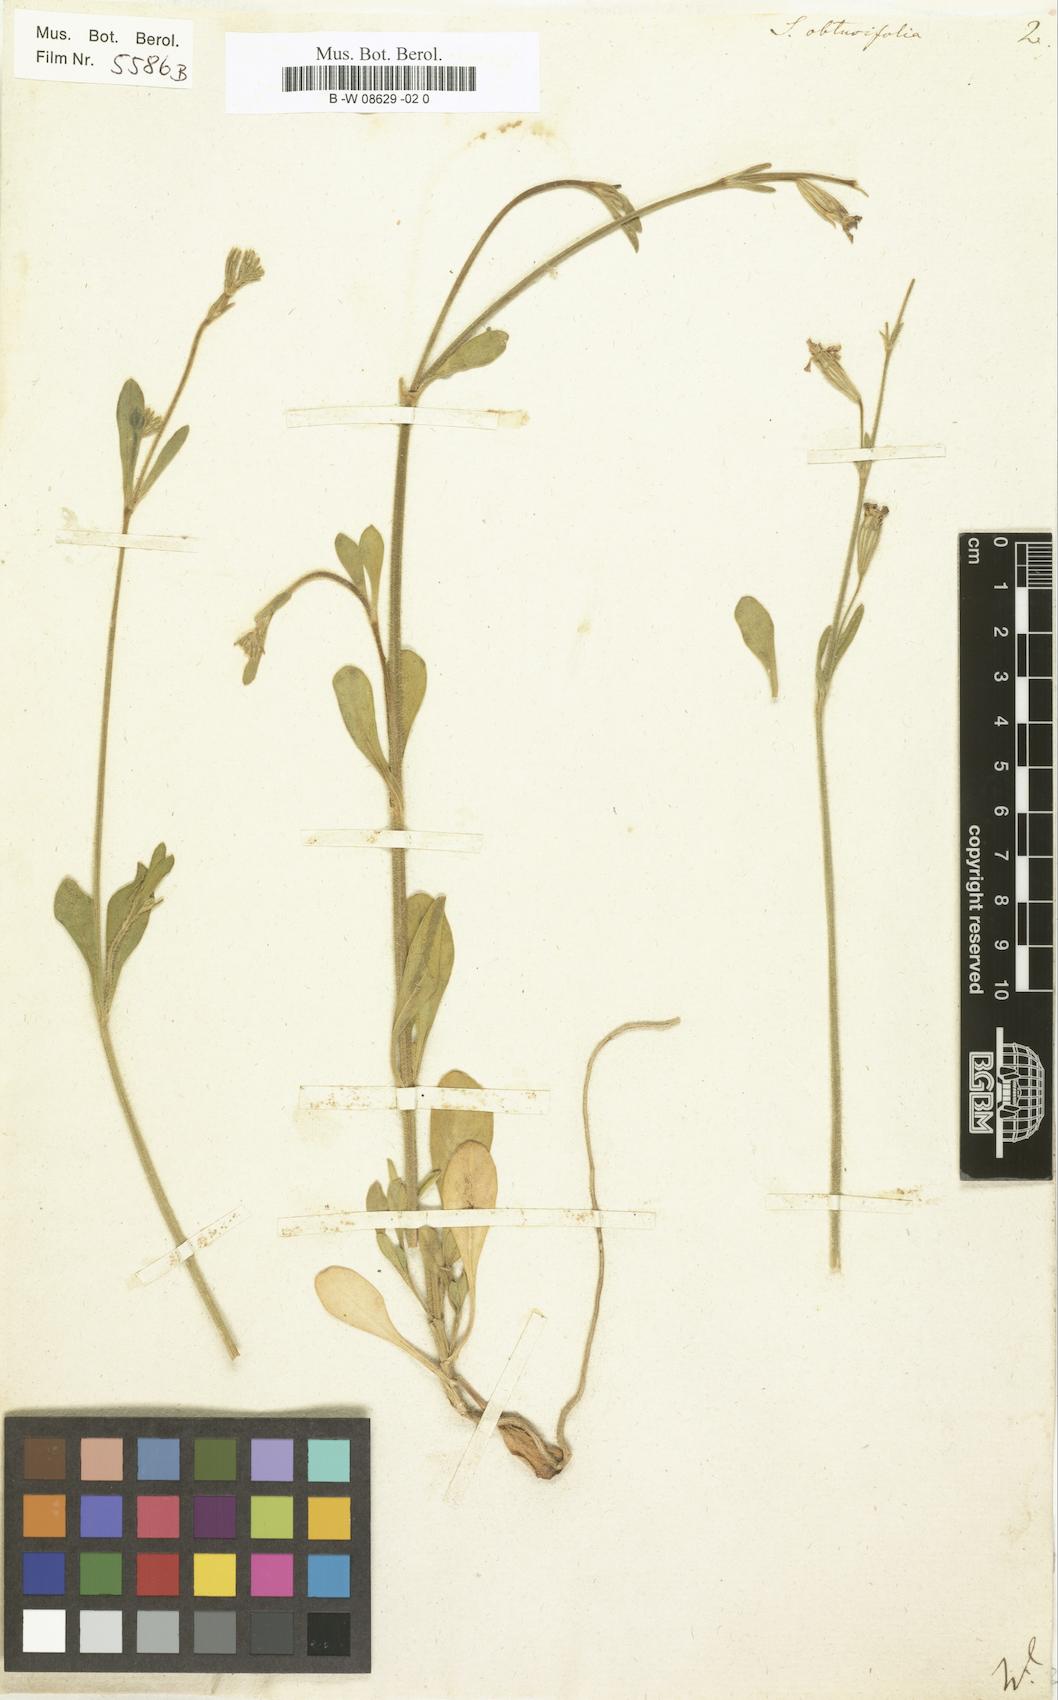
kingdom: Plantae
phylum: Tracheophyta
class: Magnoliopsida
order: Caryophyllales
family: Caryophyllaceae
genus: Silene
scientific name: Silene obtusifolia
